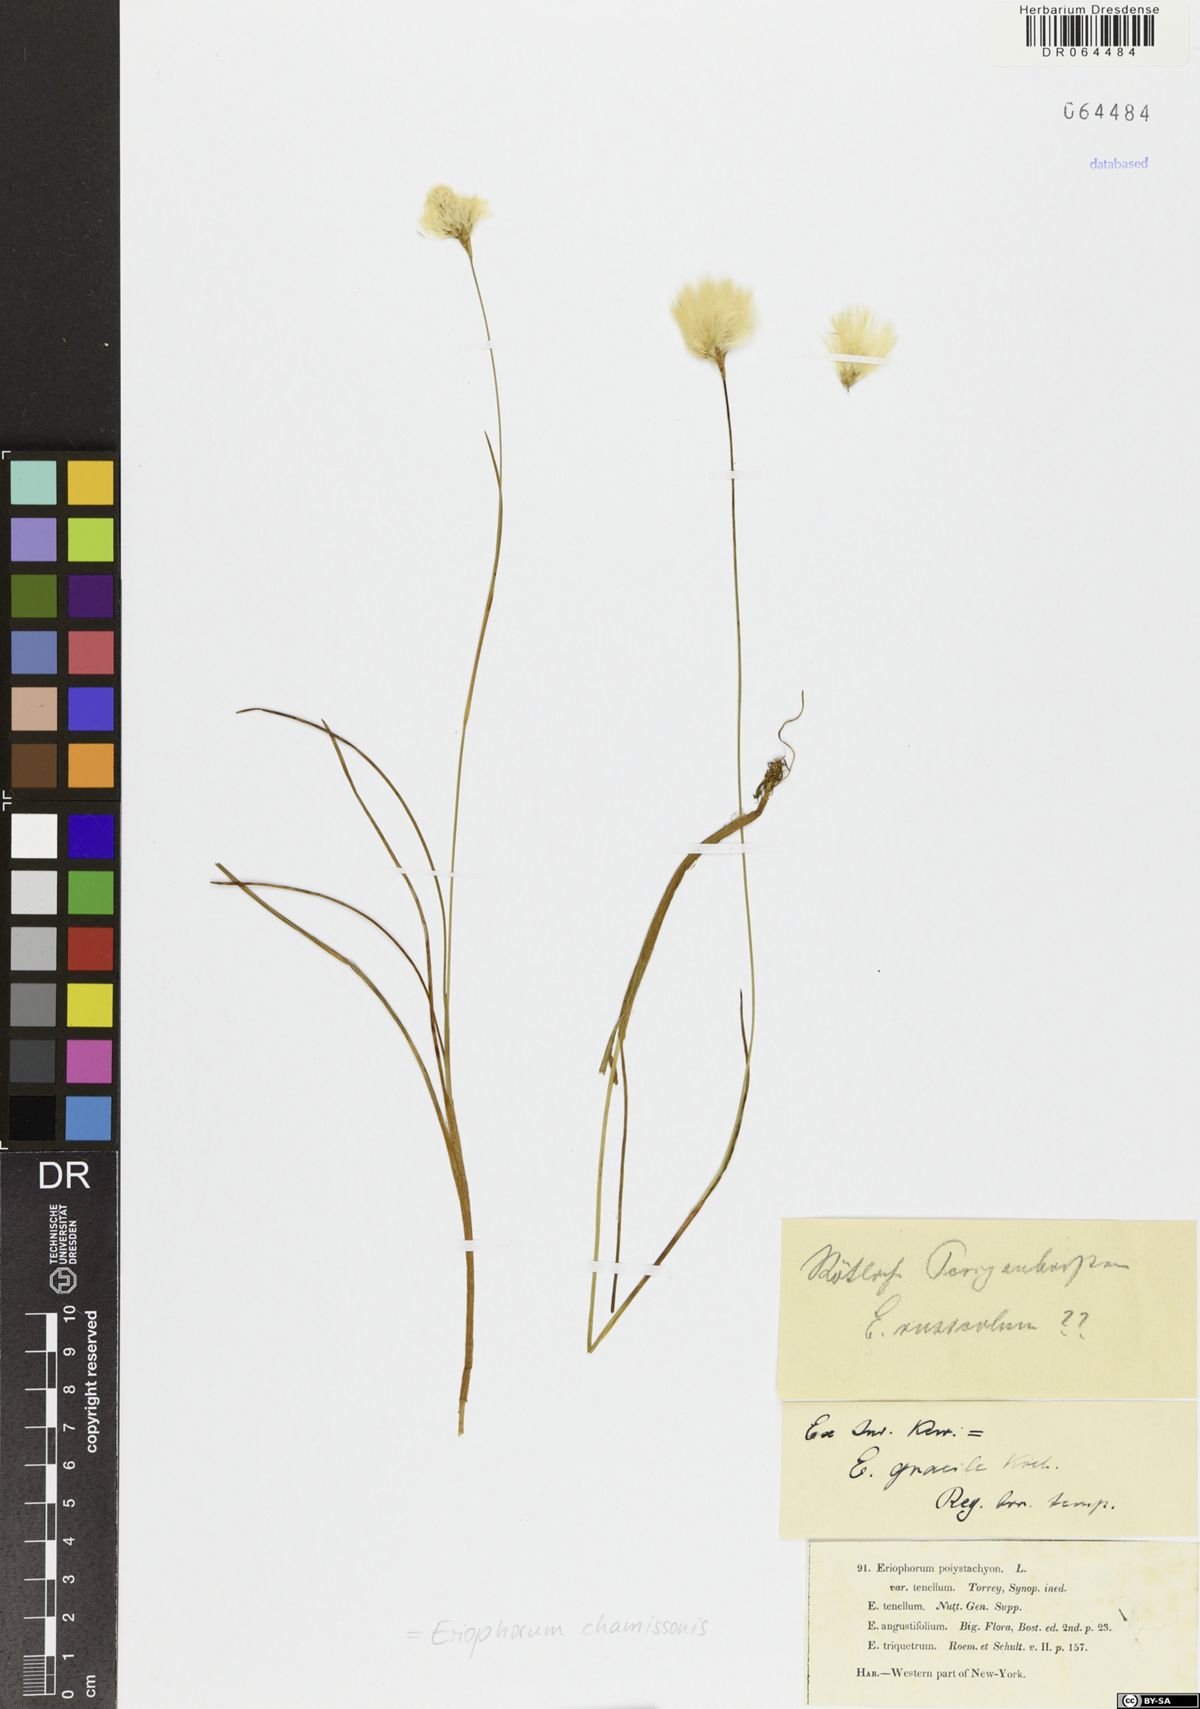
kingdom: Plantae
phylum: Tracheophyta
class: Liliopsida
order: Poales
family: Cyperaceae
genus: Eriophorum
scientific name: Eriophorum chamissonis
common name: Chamisso's cottongrass
